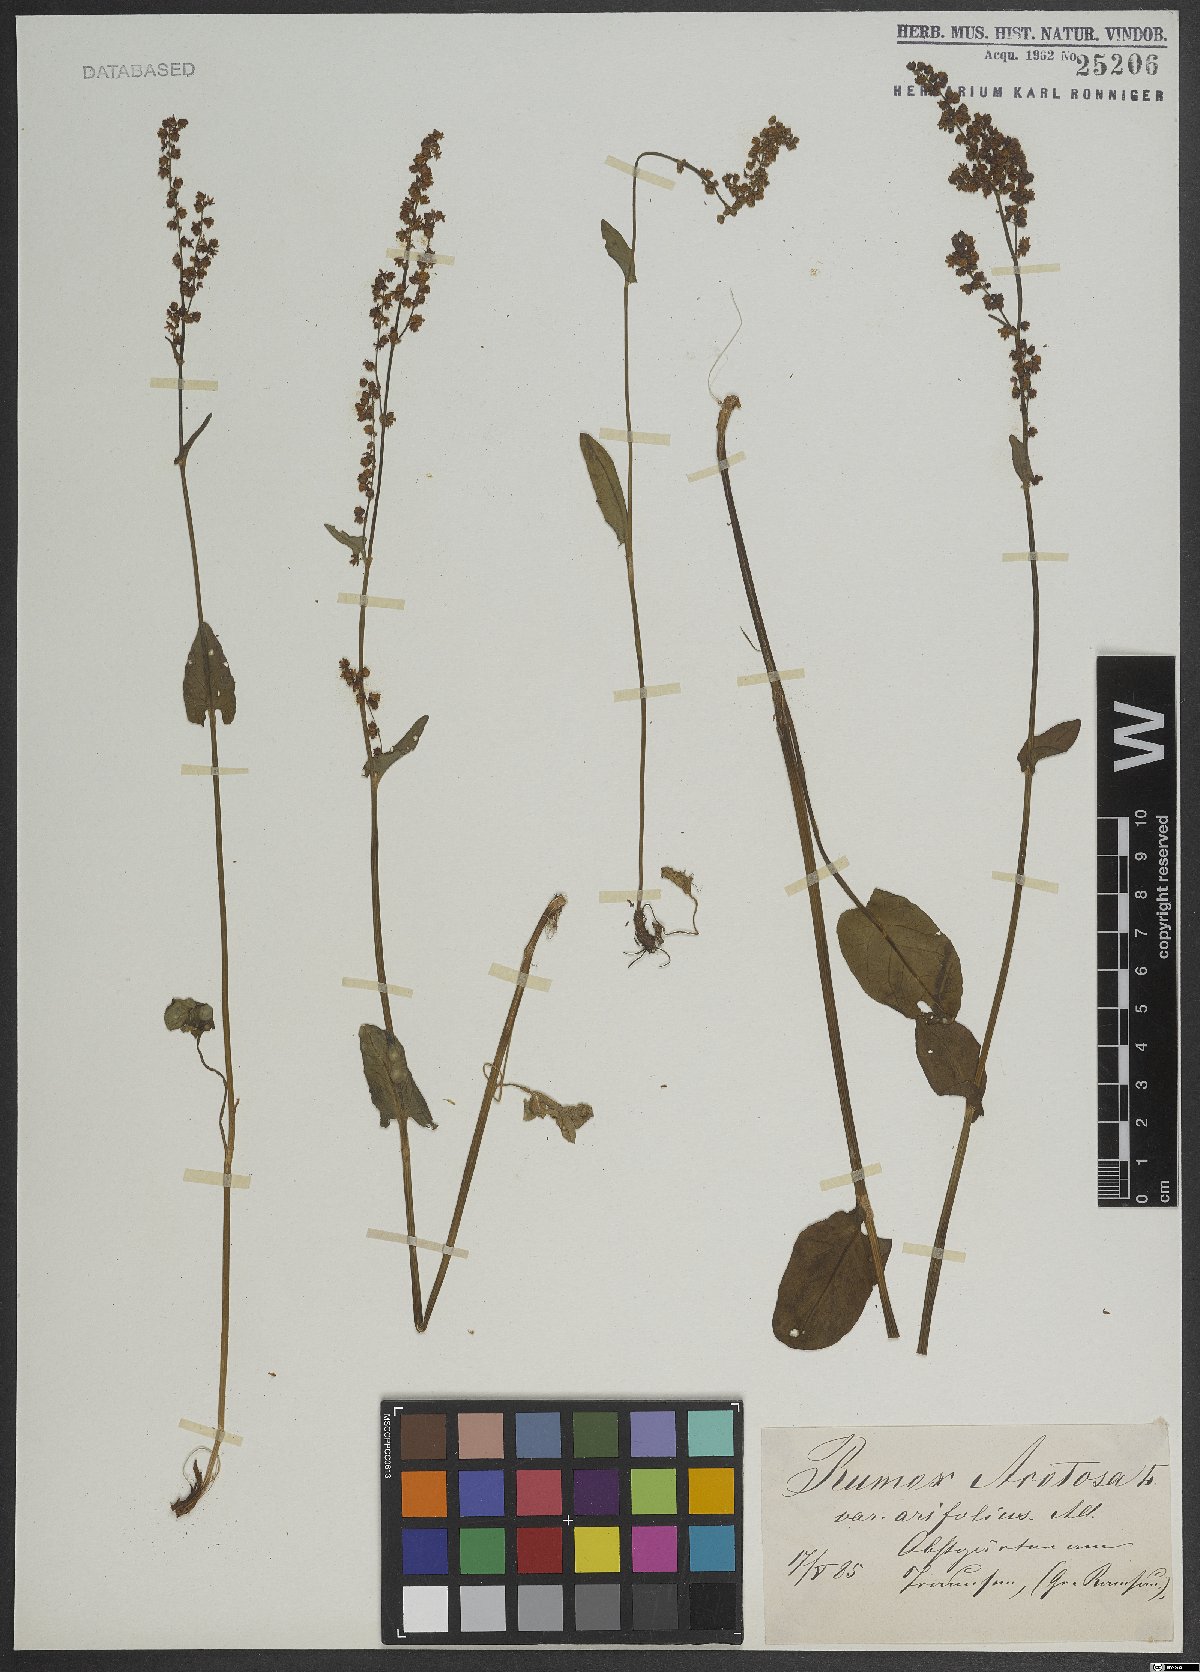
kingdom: Plantae
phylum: Tracheophyta
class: Magnoliopsida
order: Caryophyllales
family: Polygonaceae
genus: Rumex
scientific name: Rumex acetosa
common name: Garden sorrel
